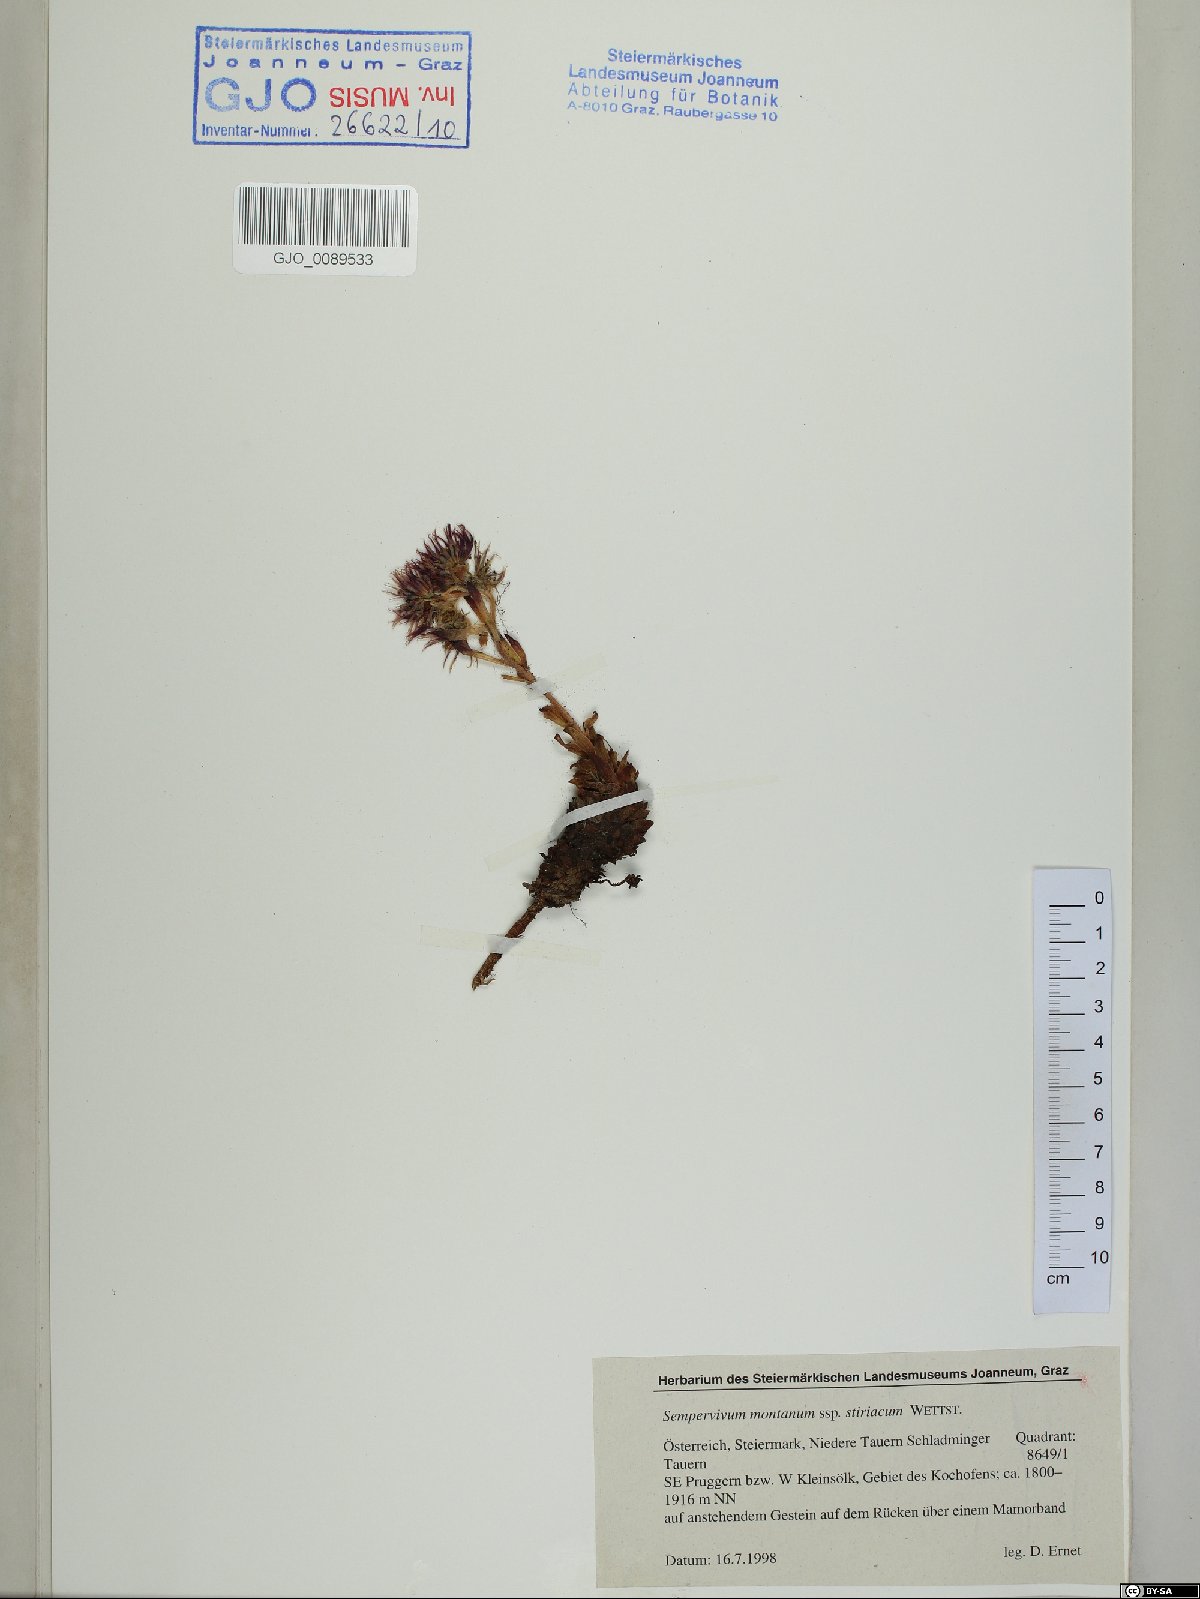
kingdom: Plantae
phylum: Tracheophyta
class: Magnoliopsida
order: Saxifragales
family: Crassulaceae
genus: Sempervivum
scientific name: Sempervivum montanum
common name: Mountain house-leek
